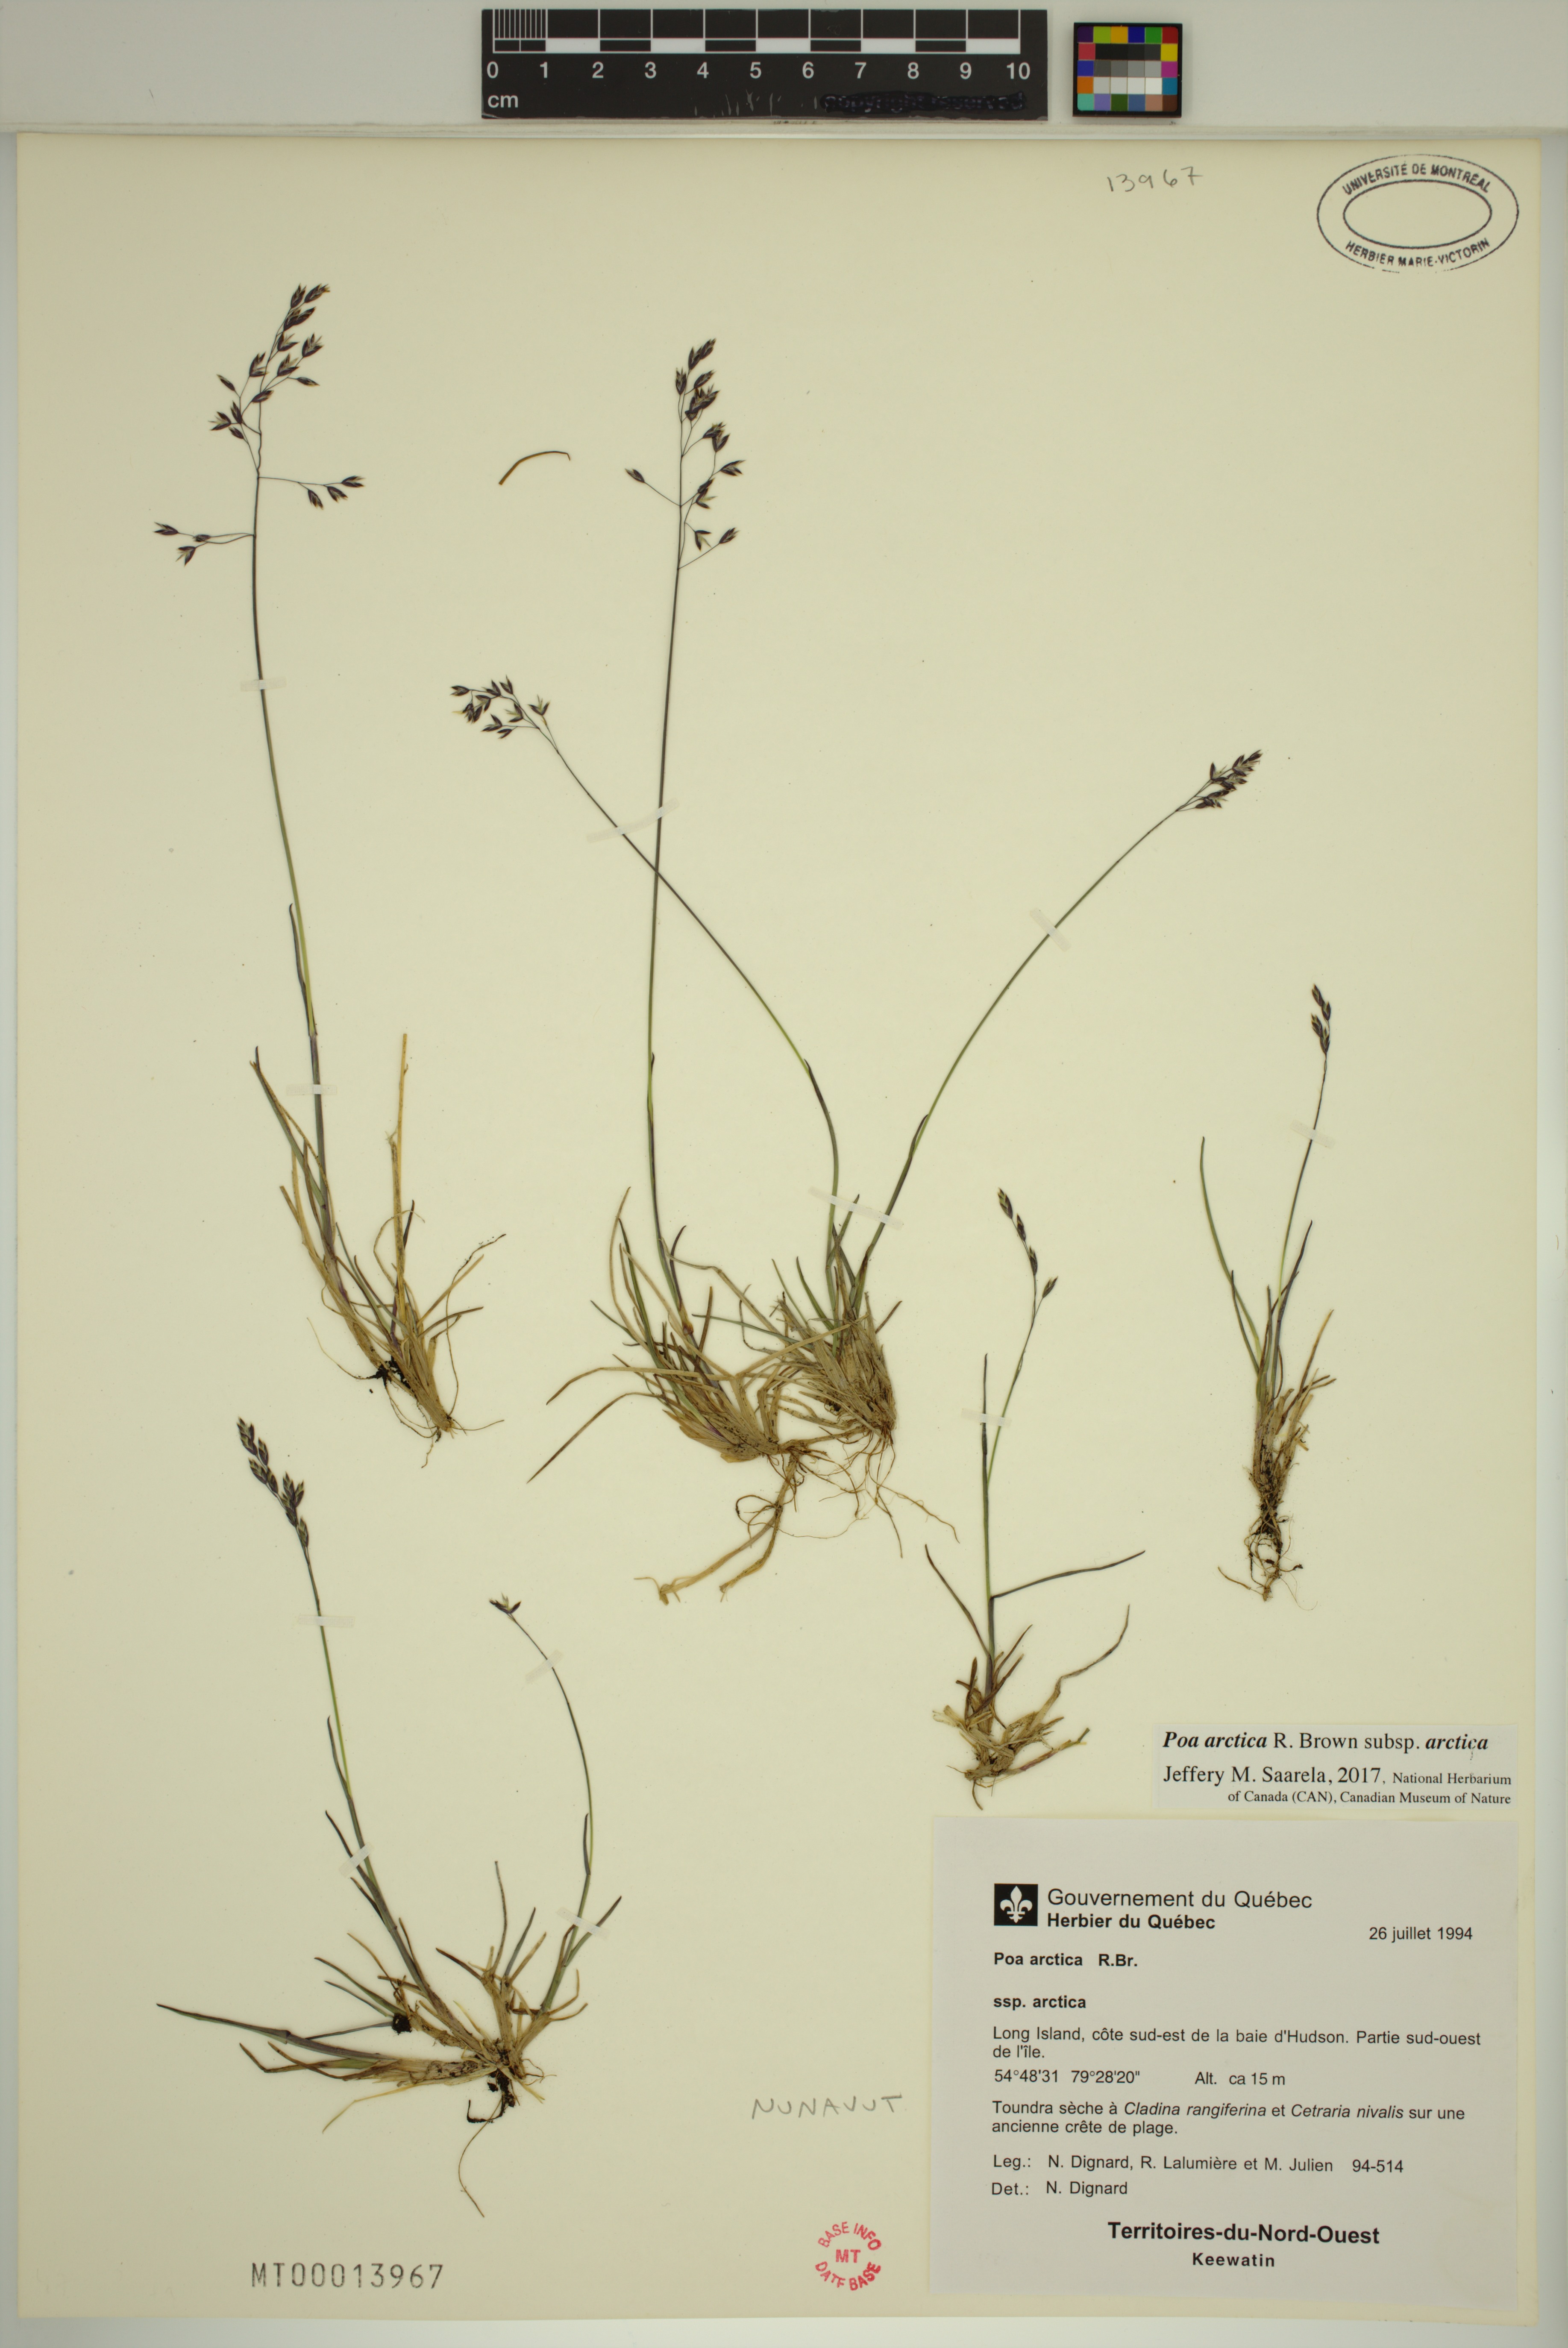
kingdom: Plantae
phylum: Tracheophyta
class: Liliopsida
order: Poales
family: Poaceae
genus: Poa
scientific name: Poa arctica
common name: Arctic bluegrass
